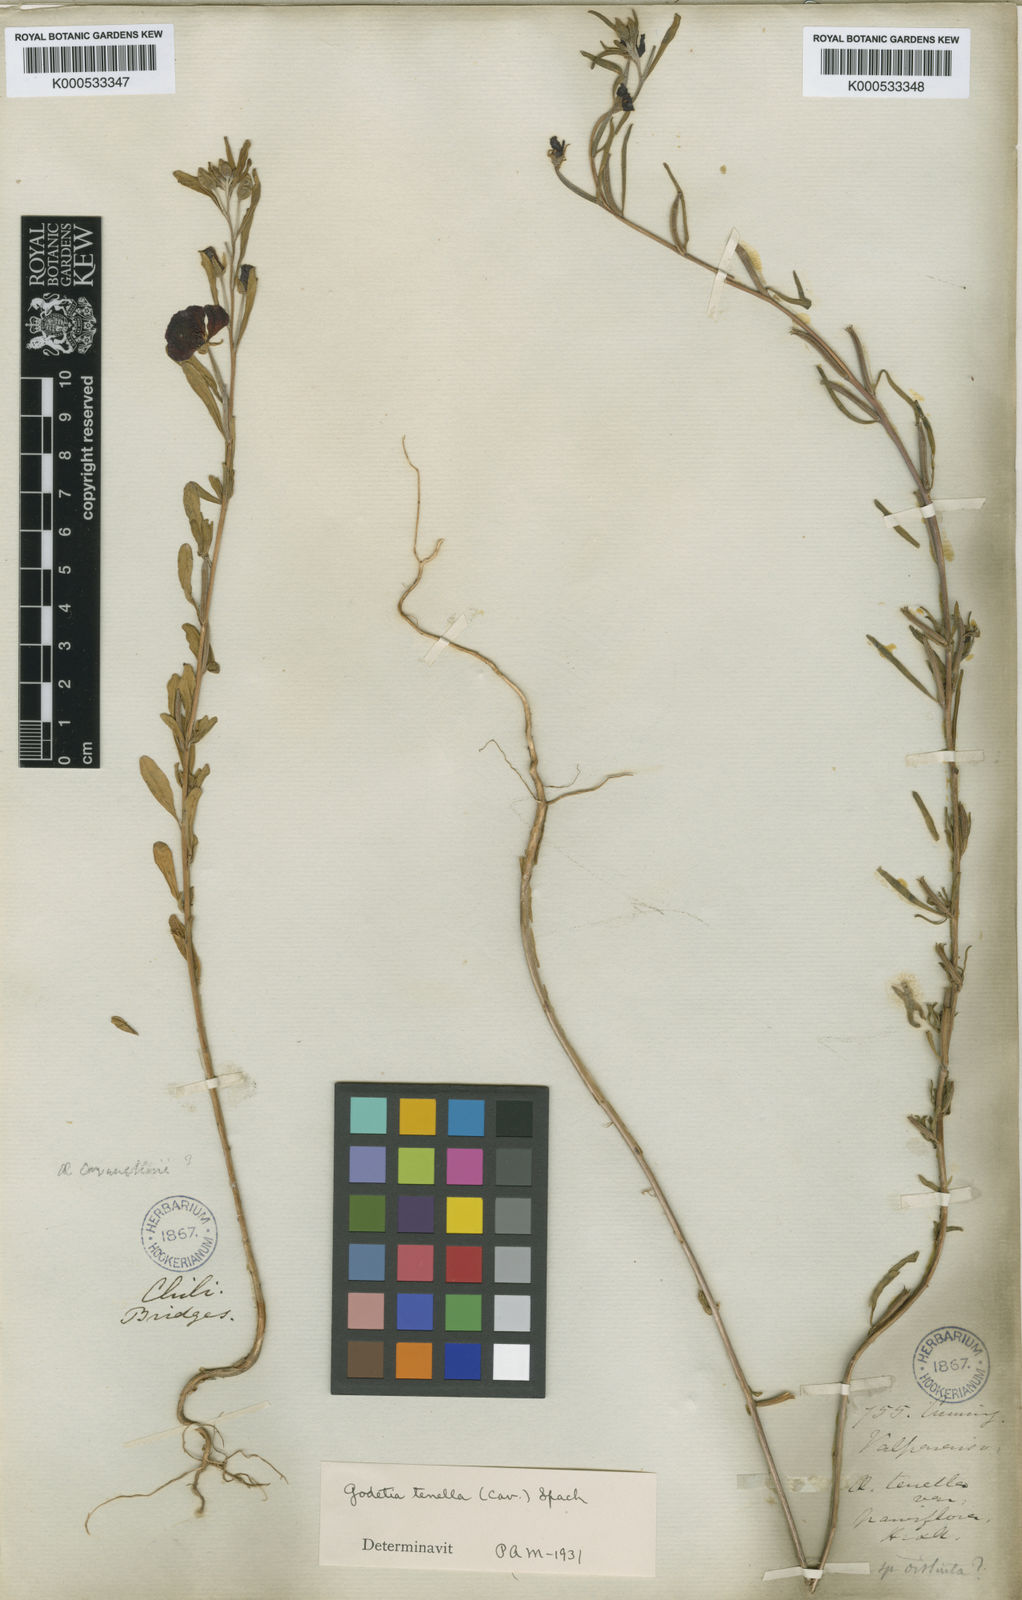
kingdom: Plantae
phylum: Tracheophyta
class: Magnoliopsida
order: Myrtales
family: Onagraceae
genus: Clarkia
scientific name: Clarkia
